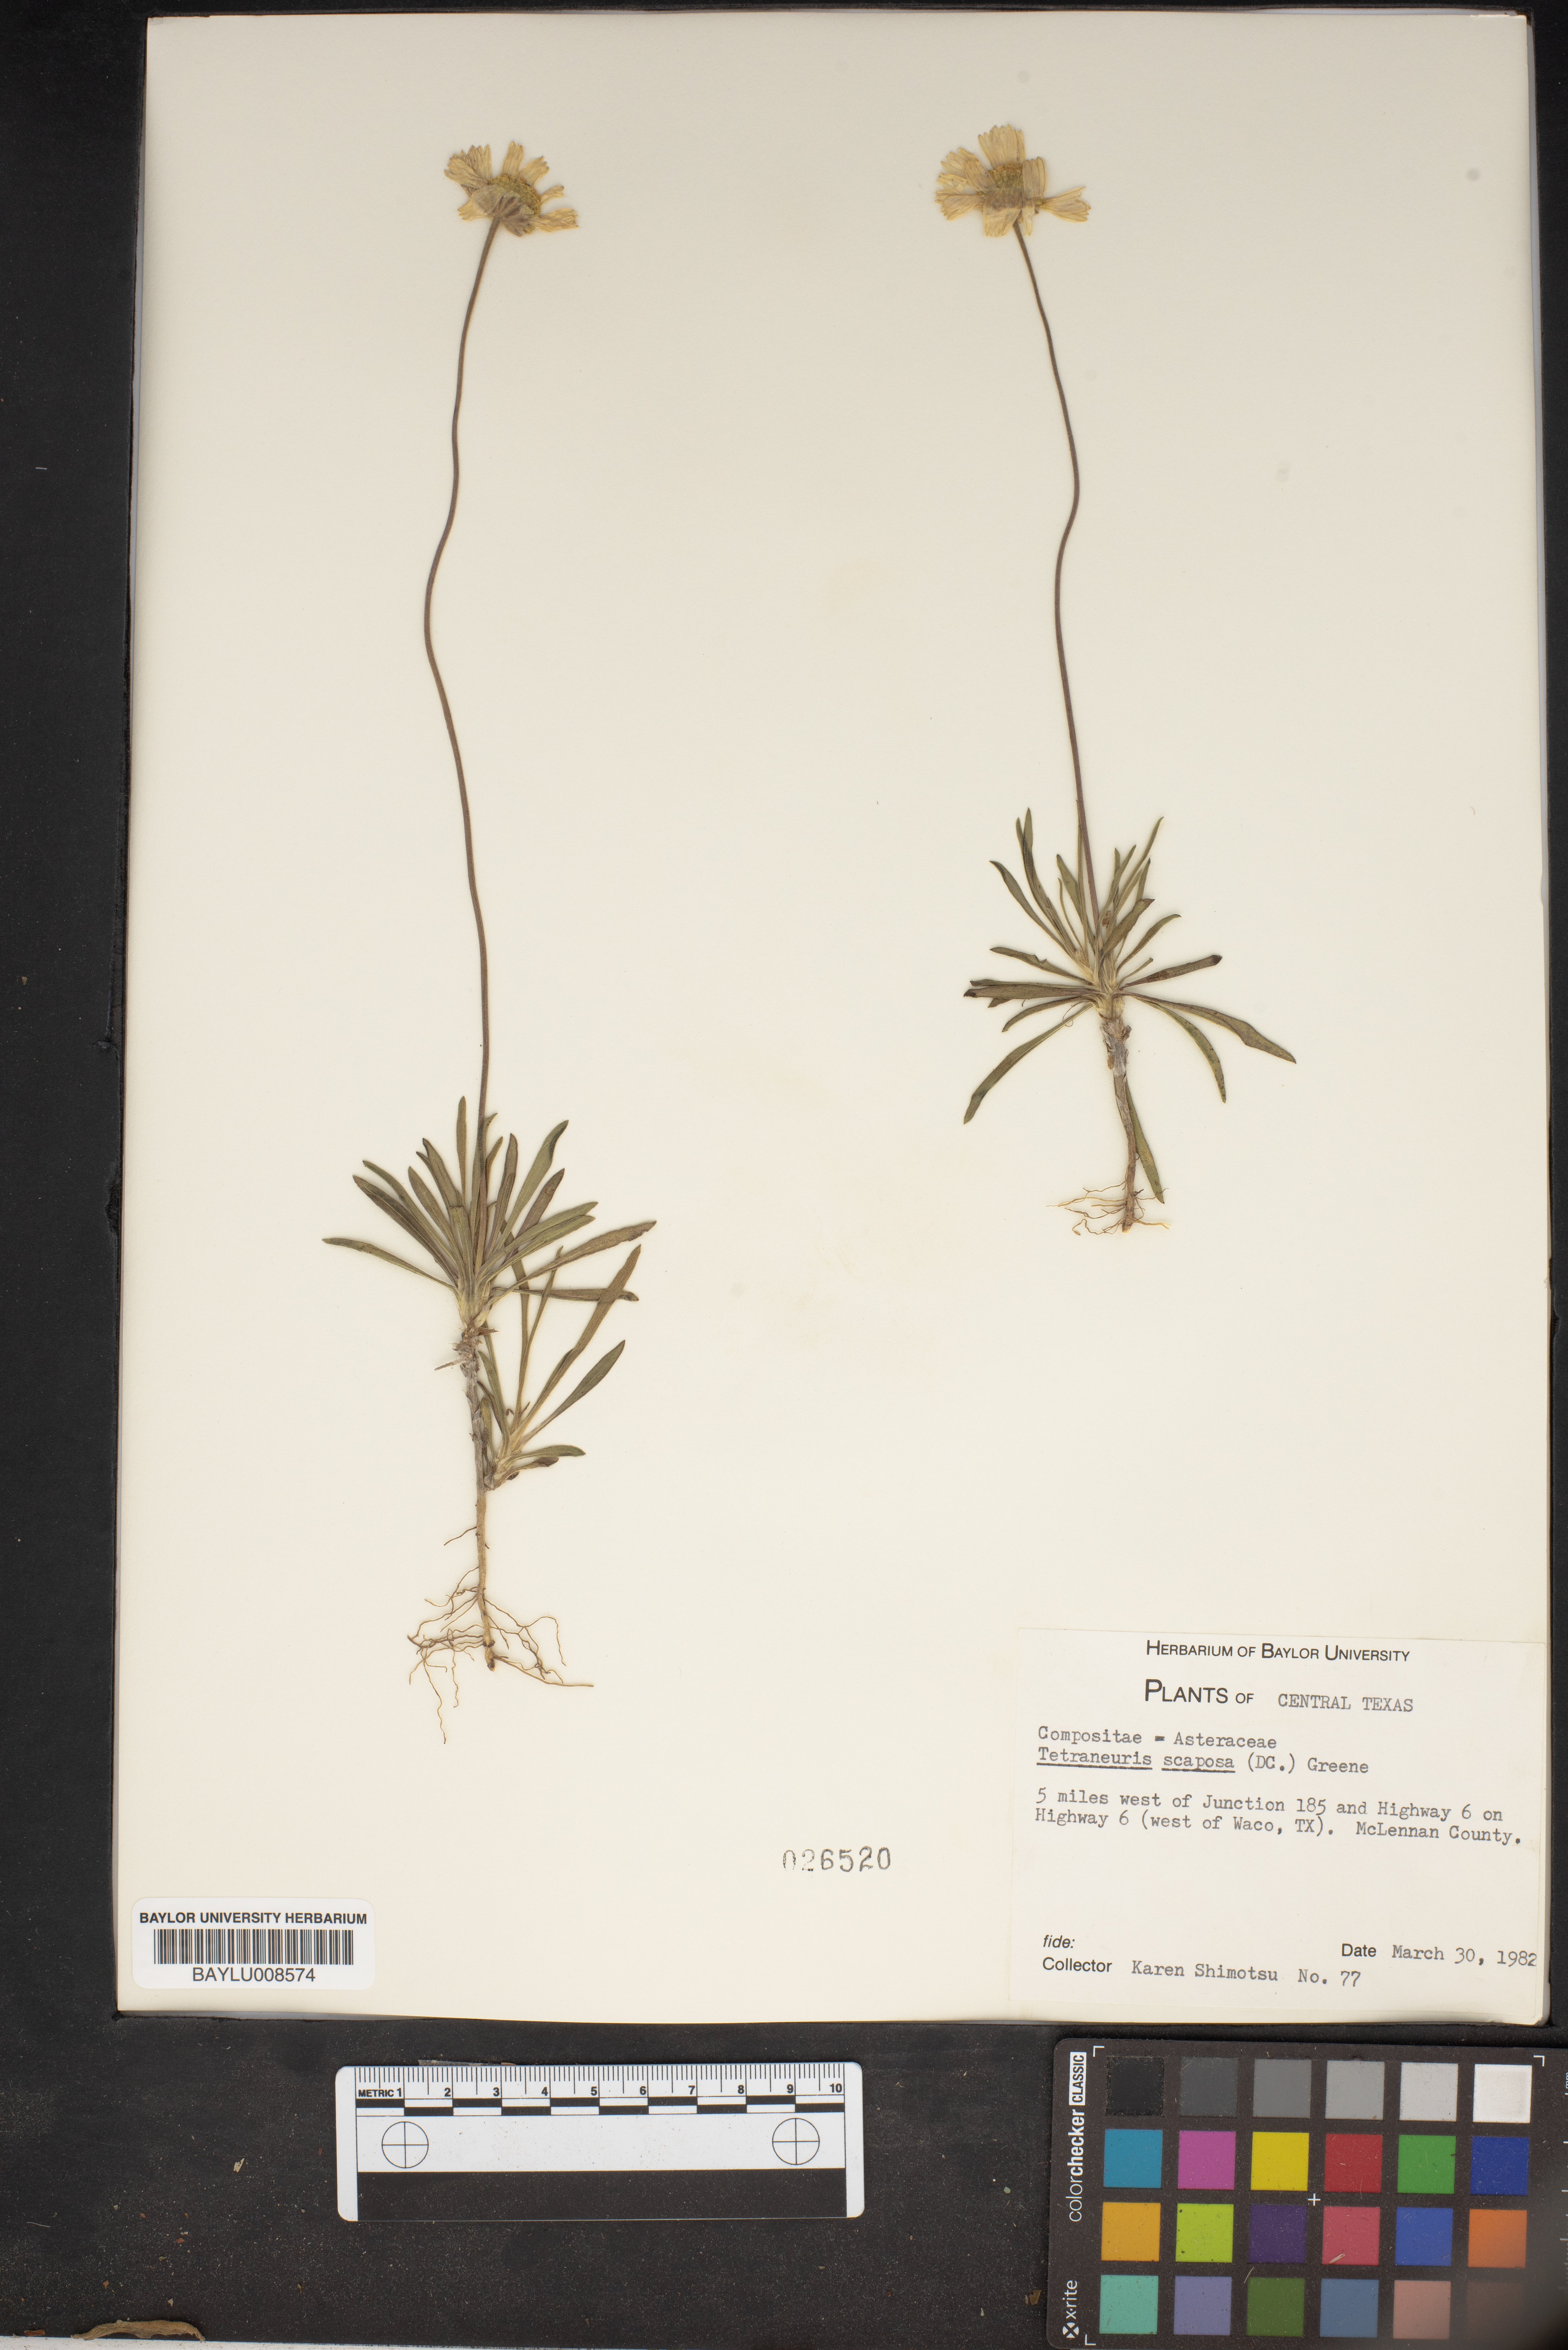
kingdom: Plantae
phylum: Tracheophyta
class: Magnoliopsida
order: Asterales
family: Asteraceae
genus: Tetraneuris
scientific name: Tetraneuris scaposa
